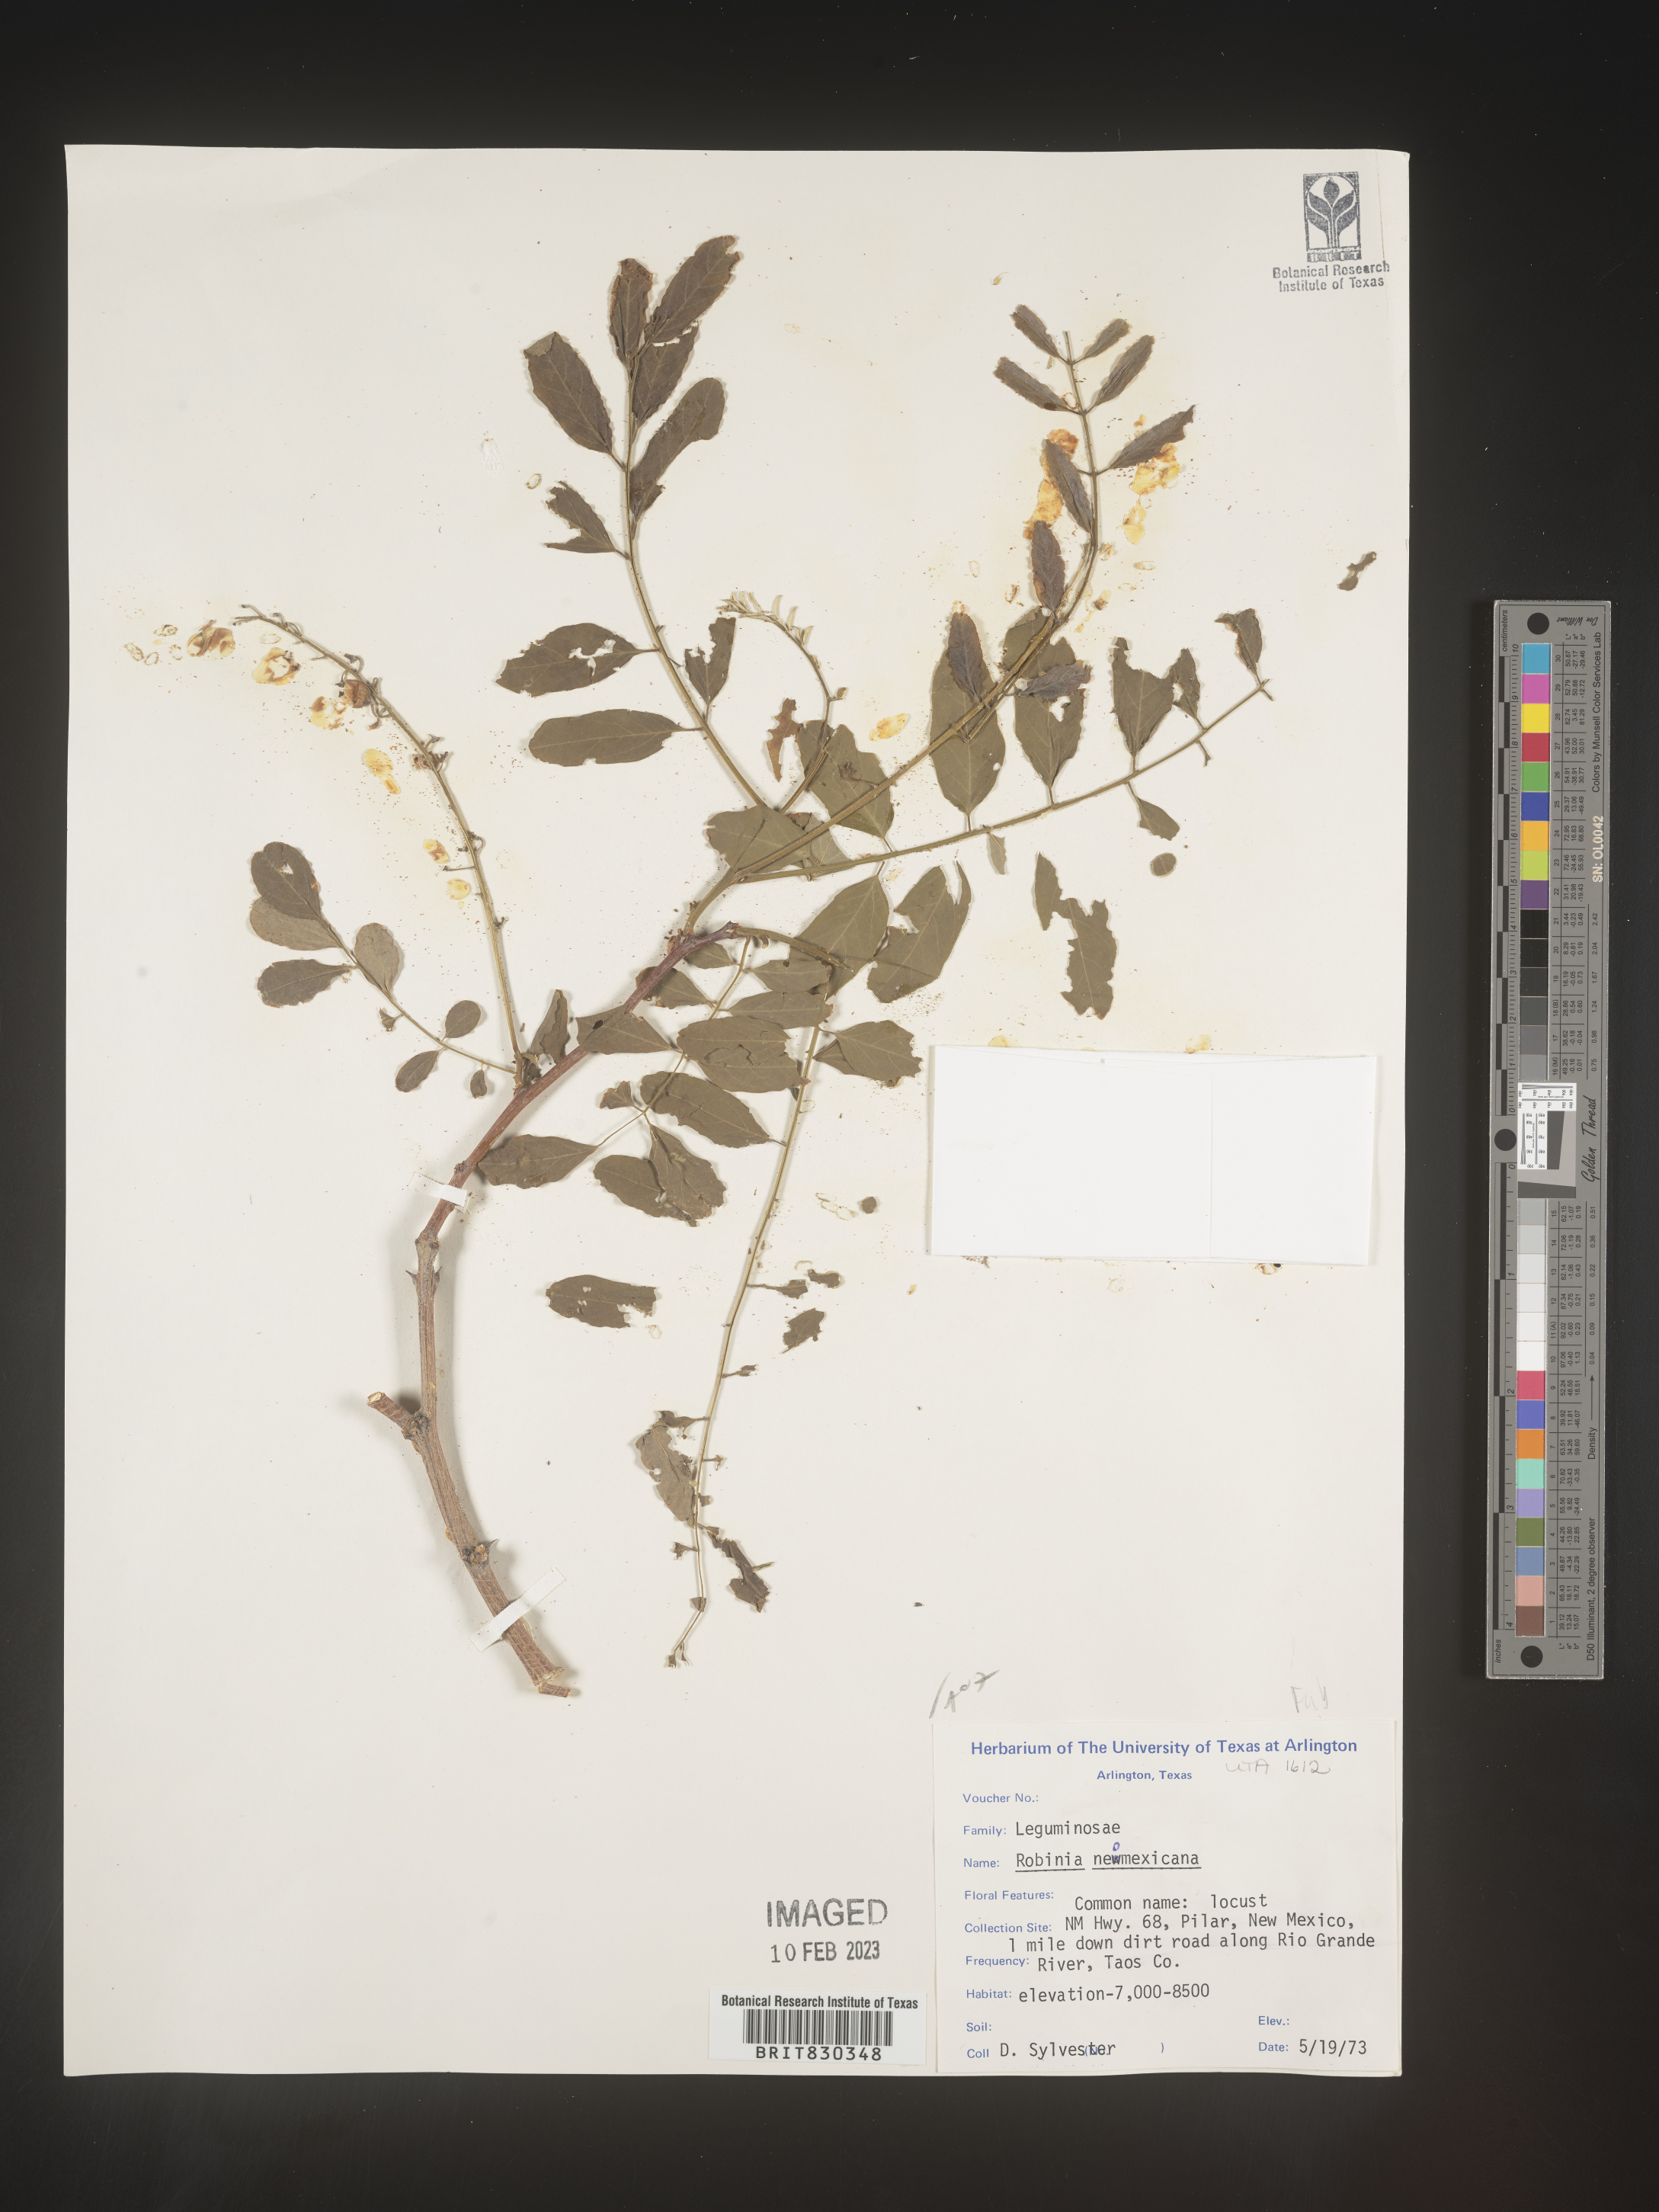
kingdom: Plantae
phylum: Tracheophyta
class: Magnoliopsida
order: Fabales
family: Fabaceae
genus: Robinia
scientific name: Robinia neomexicana
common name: New mexico locust
